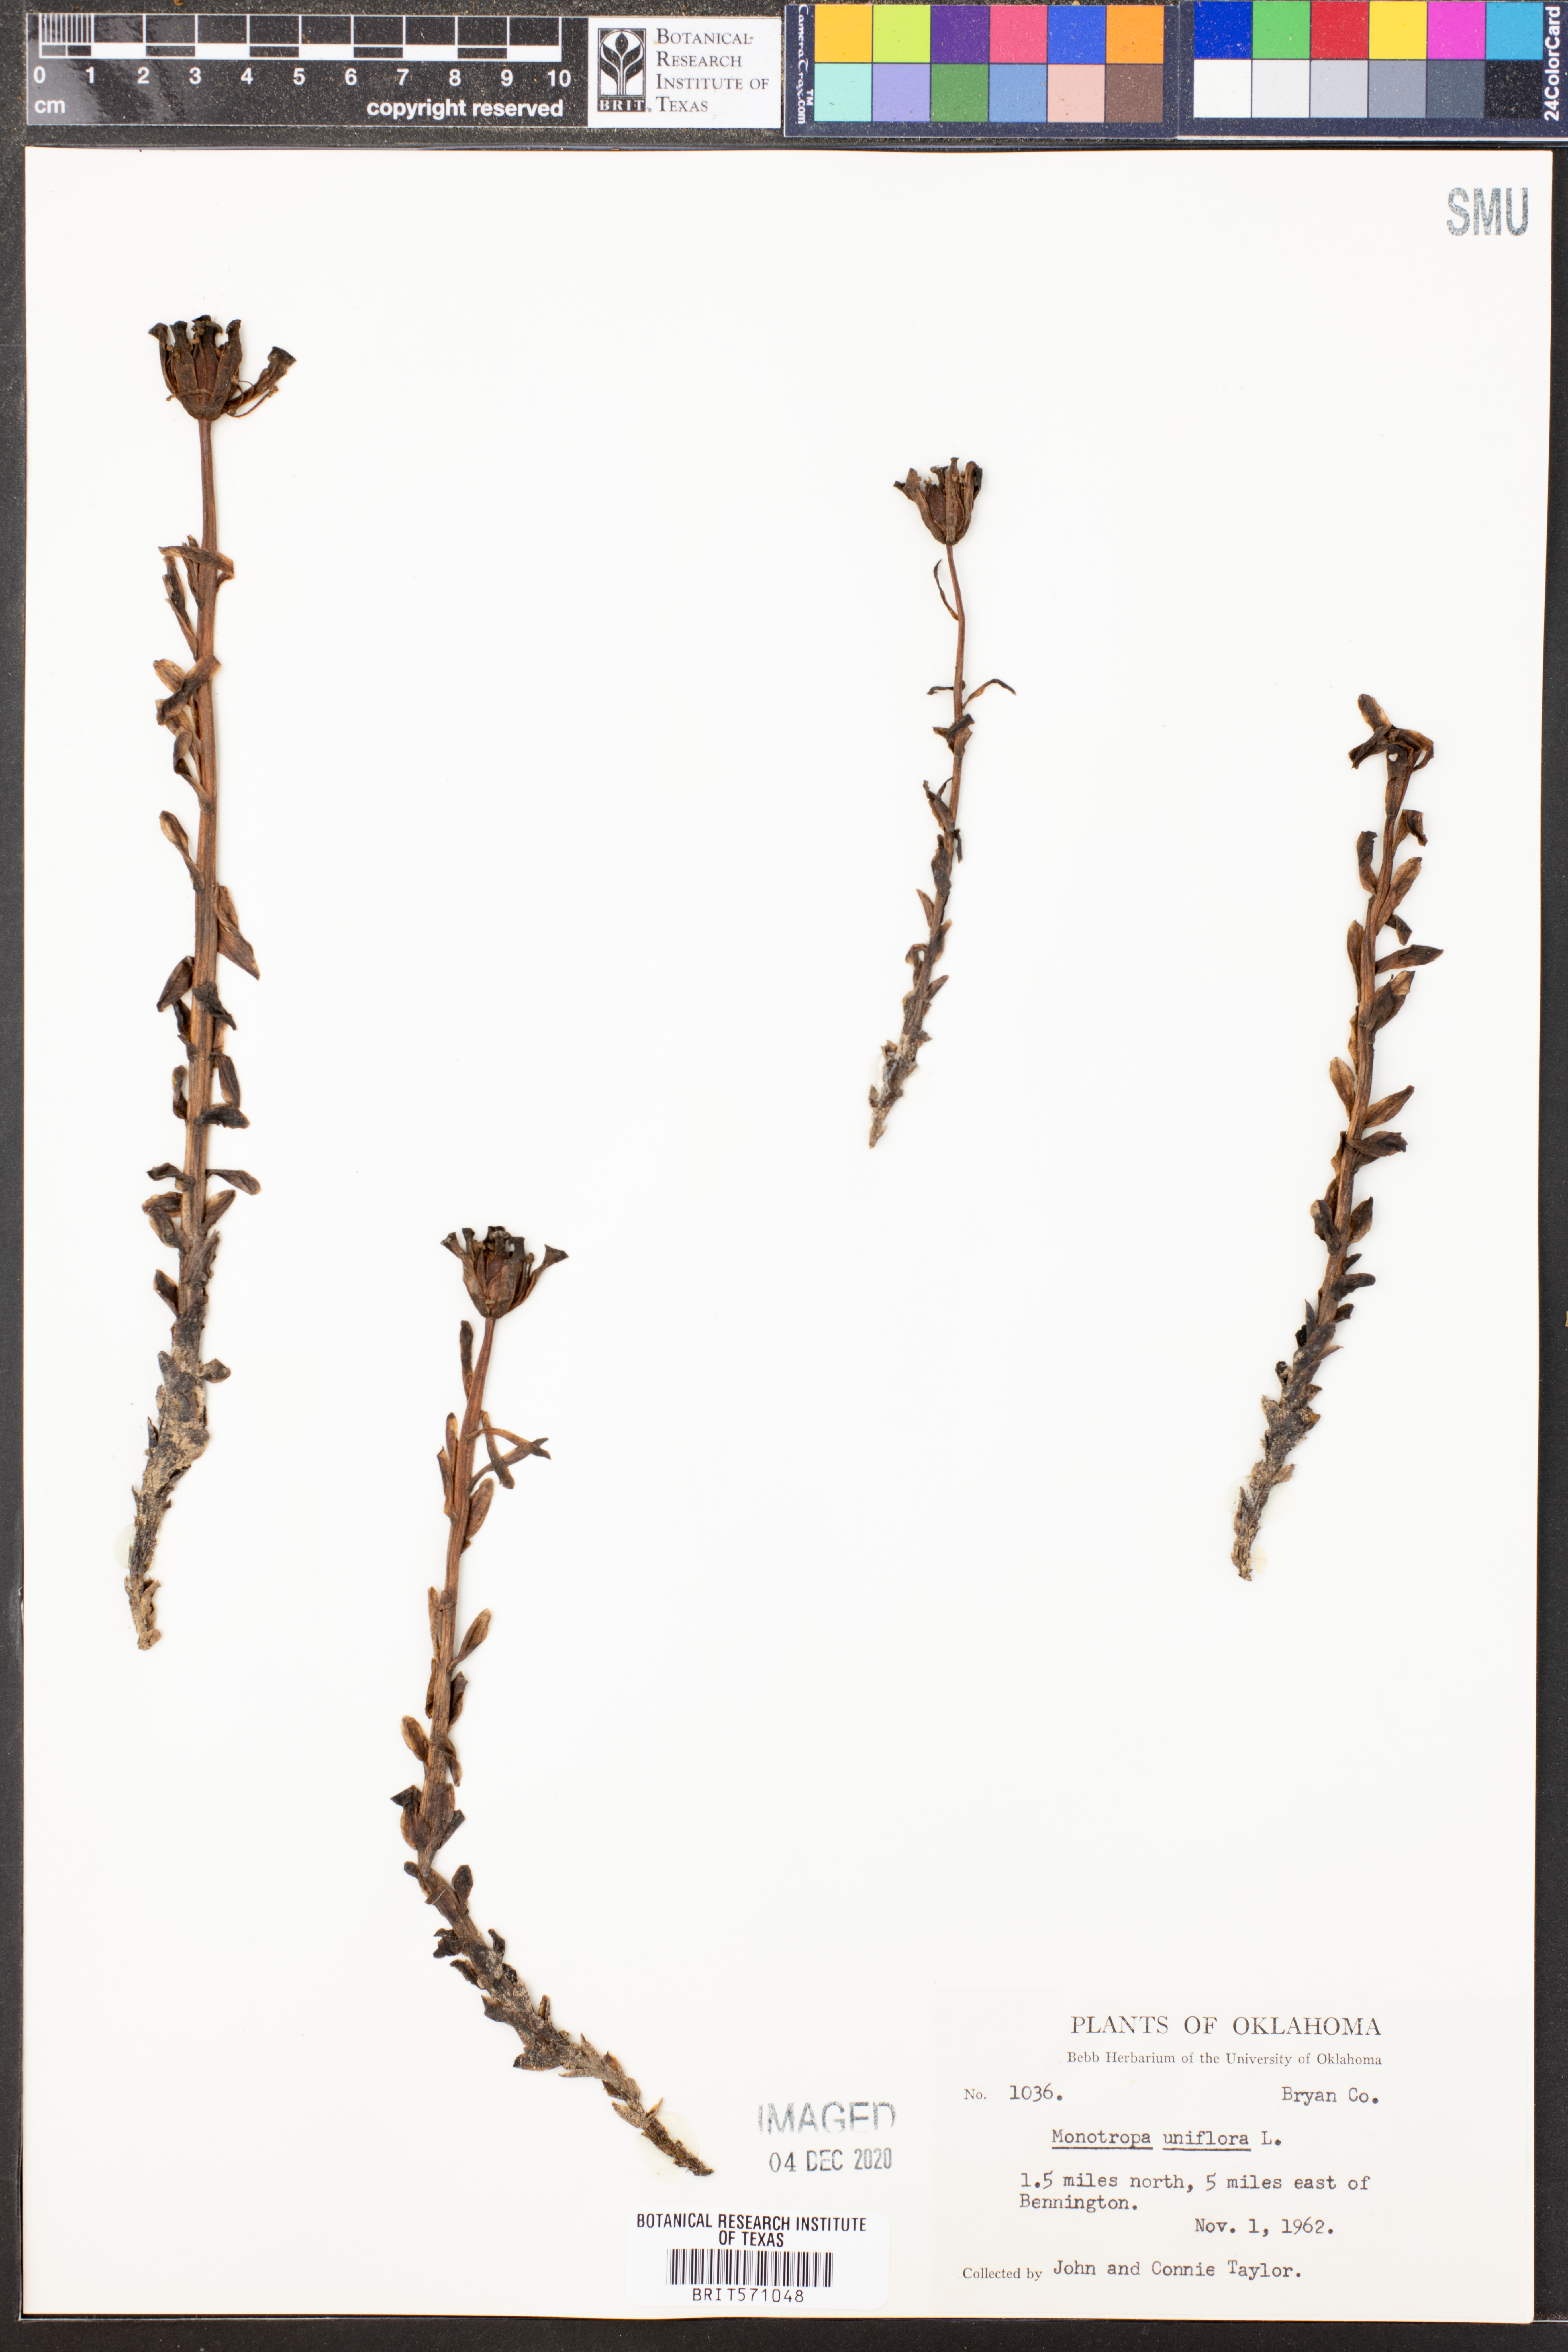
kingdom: Plantae
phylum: Tracheophyta
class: Magnoliopsida
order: Ericales
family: Ericaceae
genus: Monotropa
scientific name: Monotropa uniflora
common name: Convulsion root
